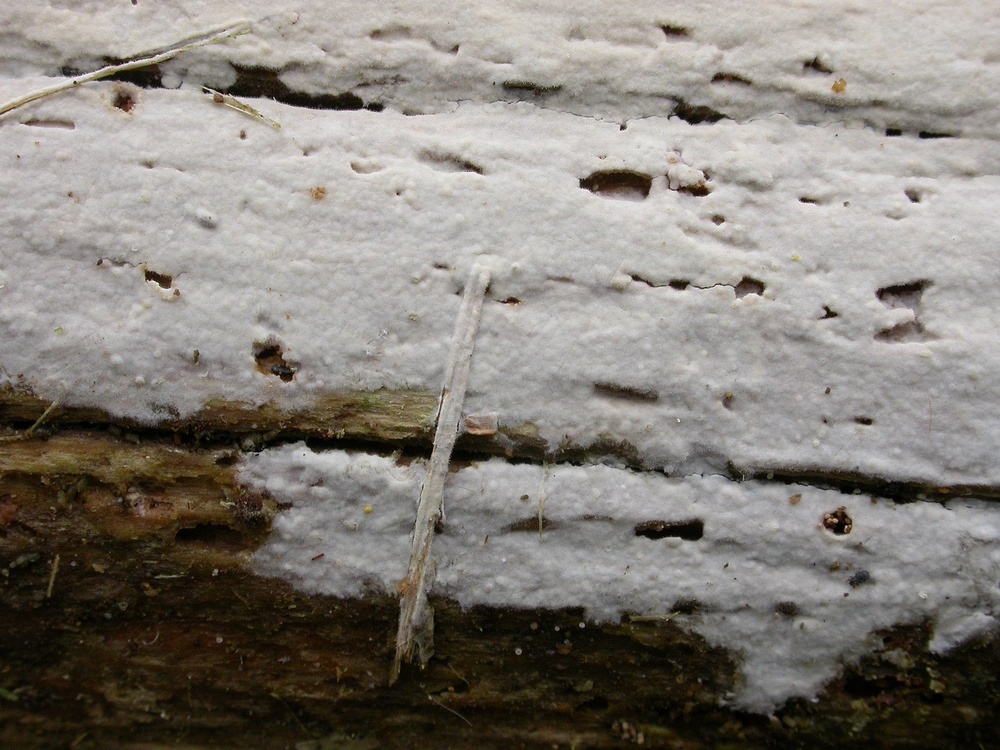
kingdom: Fungi
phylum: Basidiomycota
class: Agaricomycetes
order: Corticiales
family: Corticiaceae
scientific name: Corticiaceae
